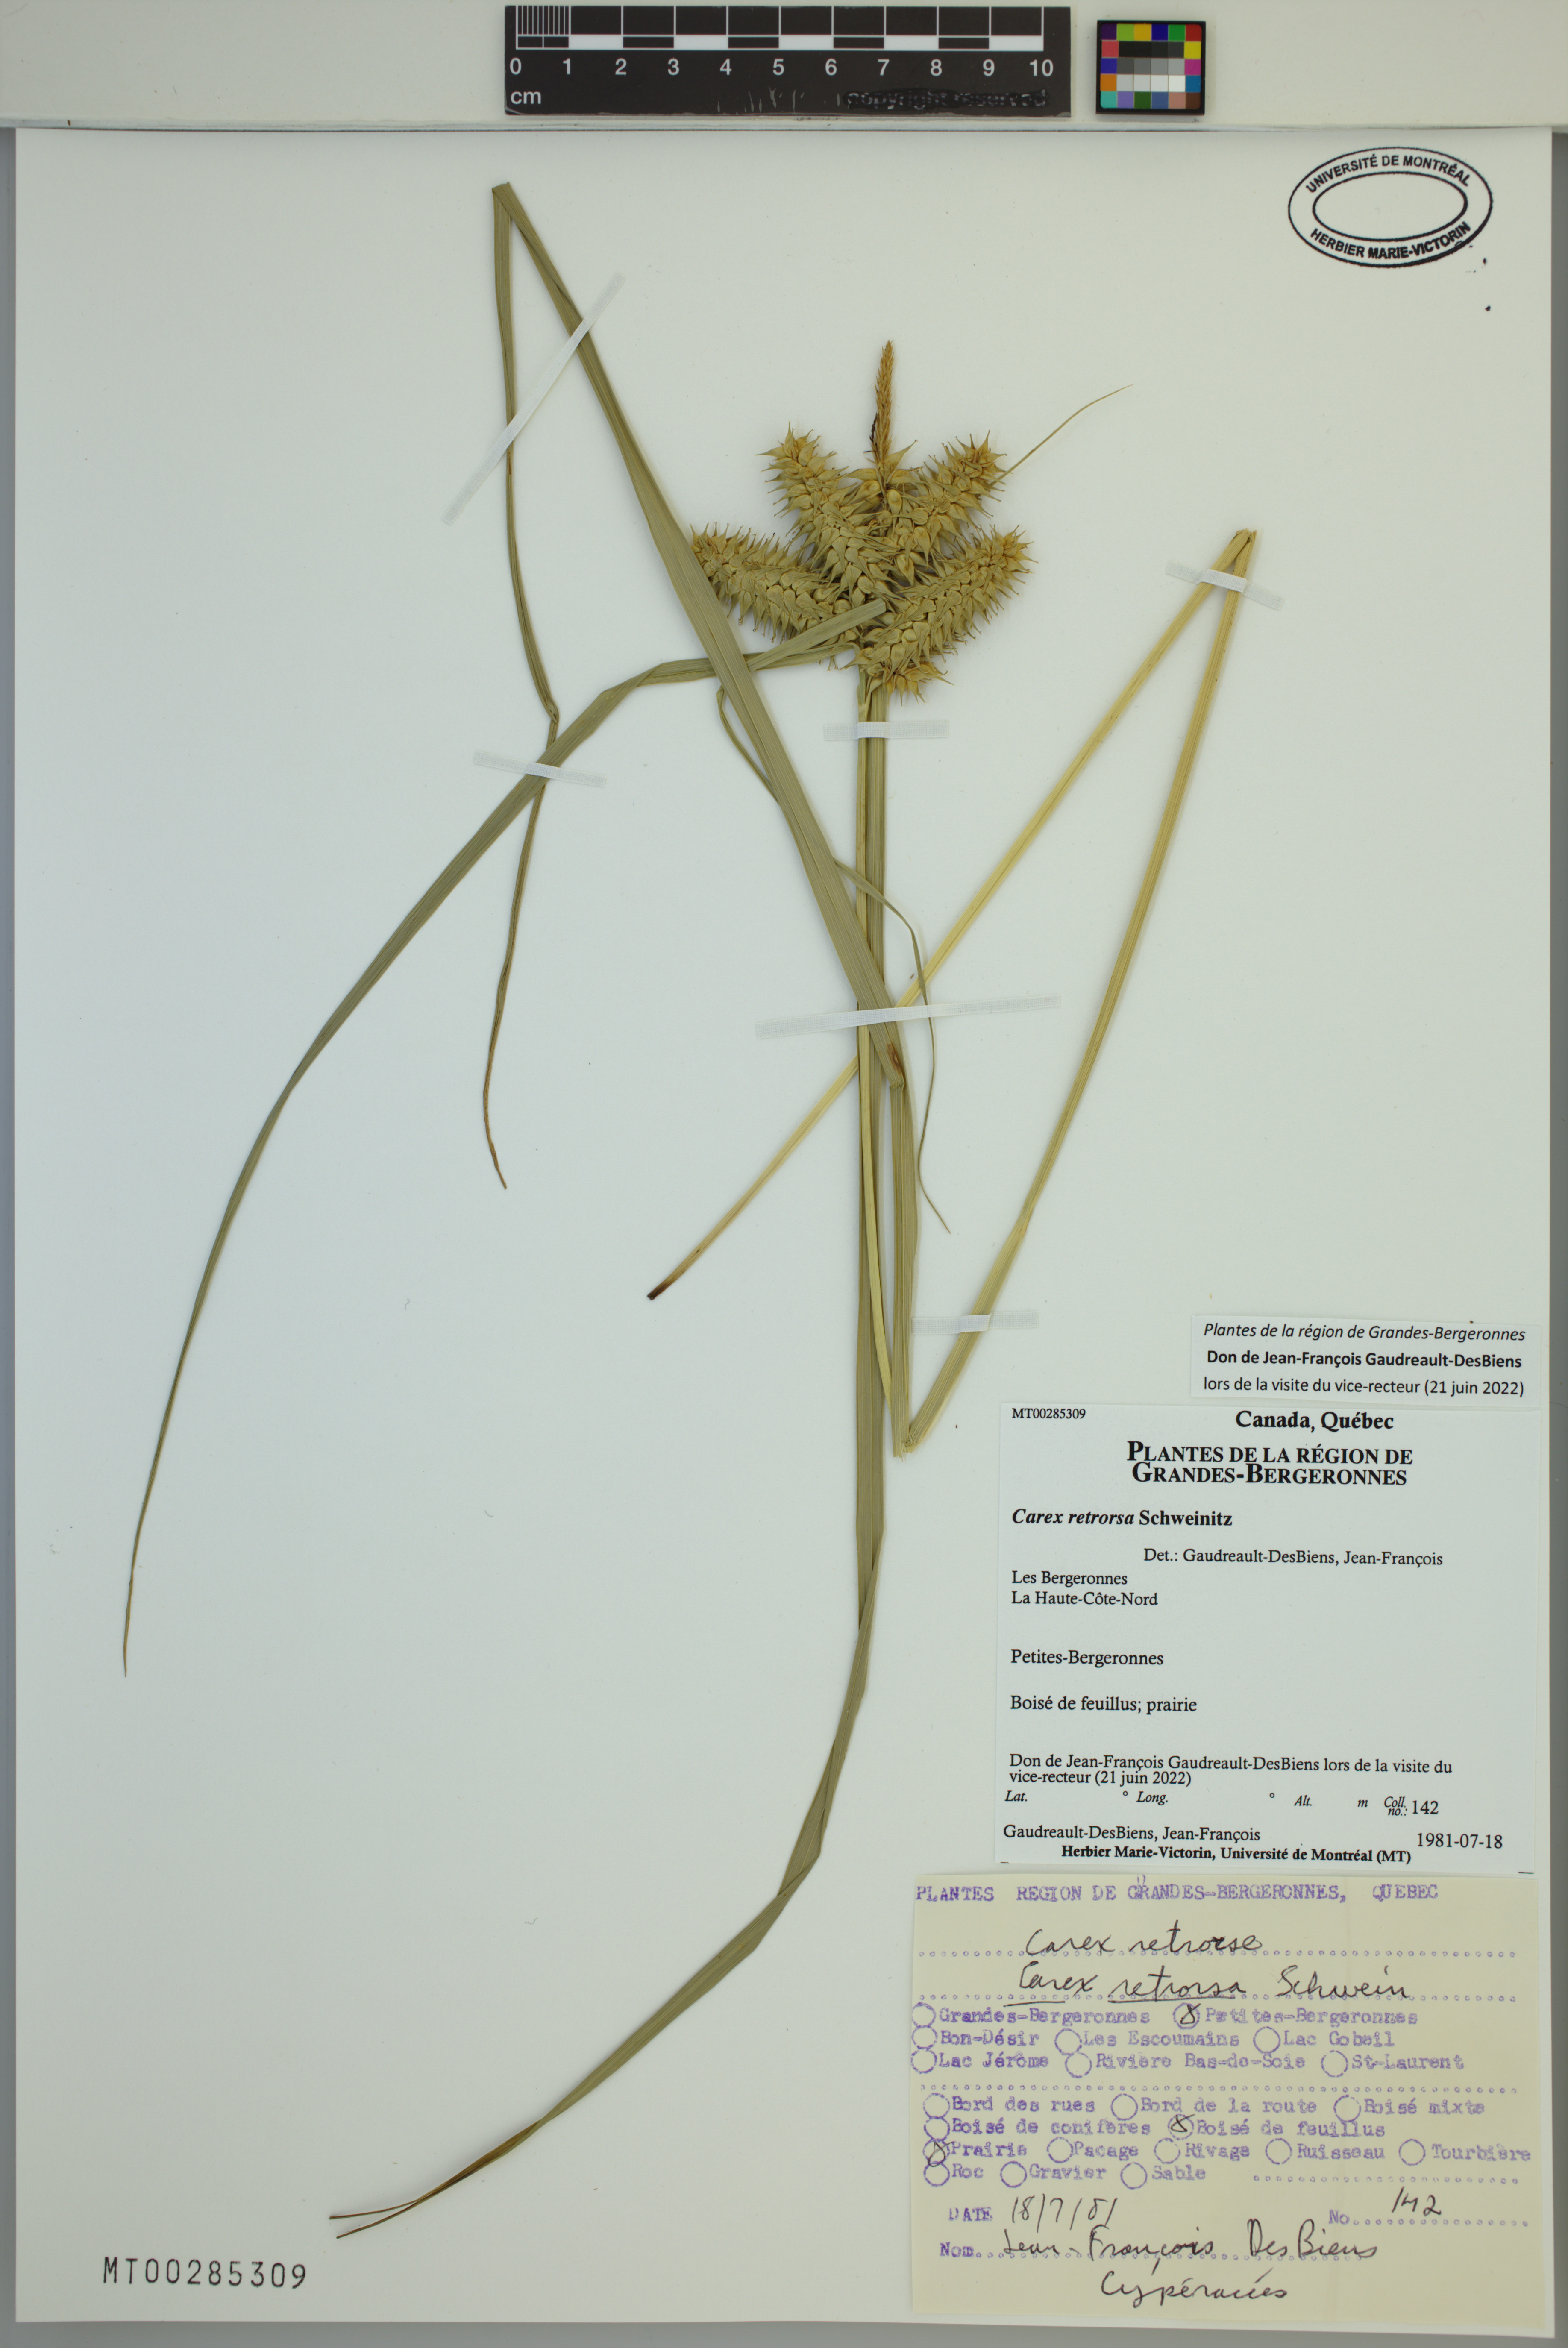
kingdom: Plantae
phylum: Tracheophyta
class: Liliopsida
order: Poales
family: Cyperaceae
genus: Carex
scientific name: Carex retrorsa
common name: Knot-sheath sedge
